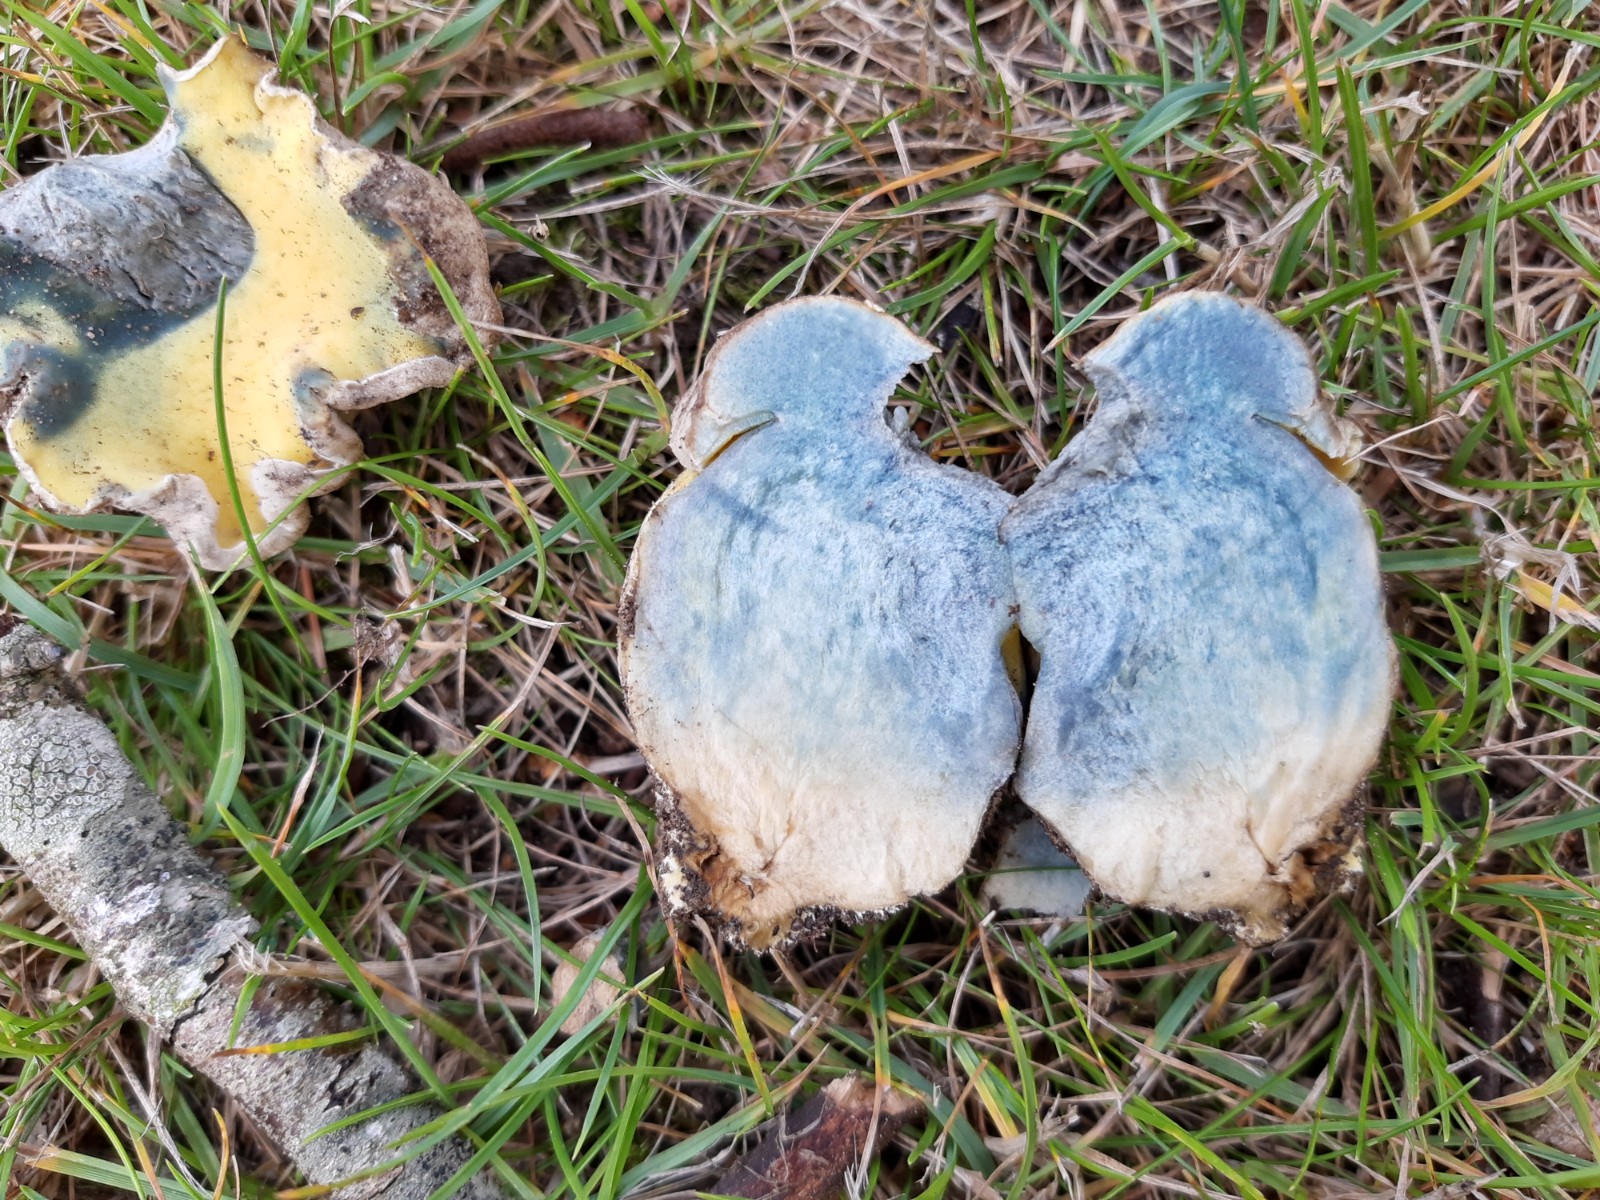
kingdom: Fungi
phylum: Basidiomycota
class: Agaricomycetes
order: Boletales
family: Boletaceae
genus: Caloboletus
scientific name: Caloboletus radicans
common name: rod-rørhat
